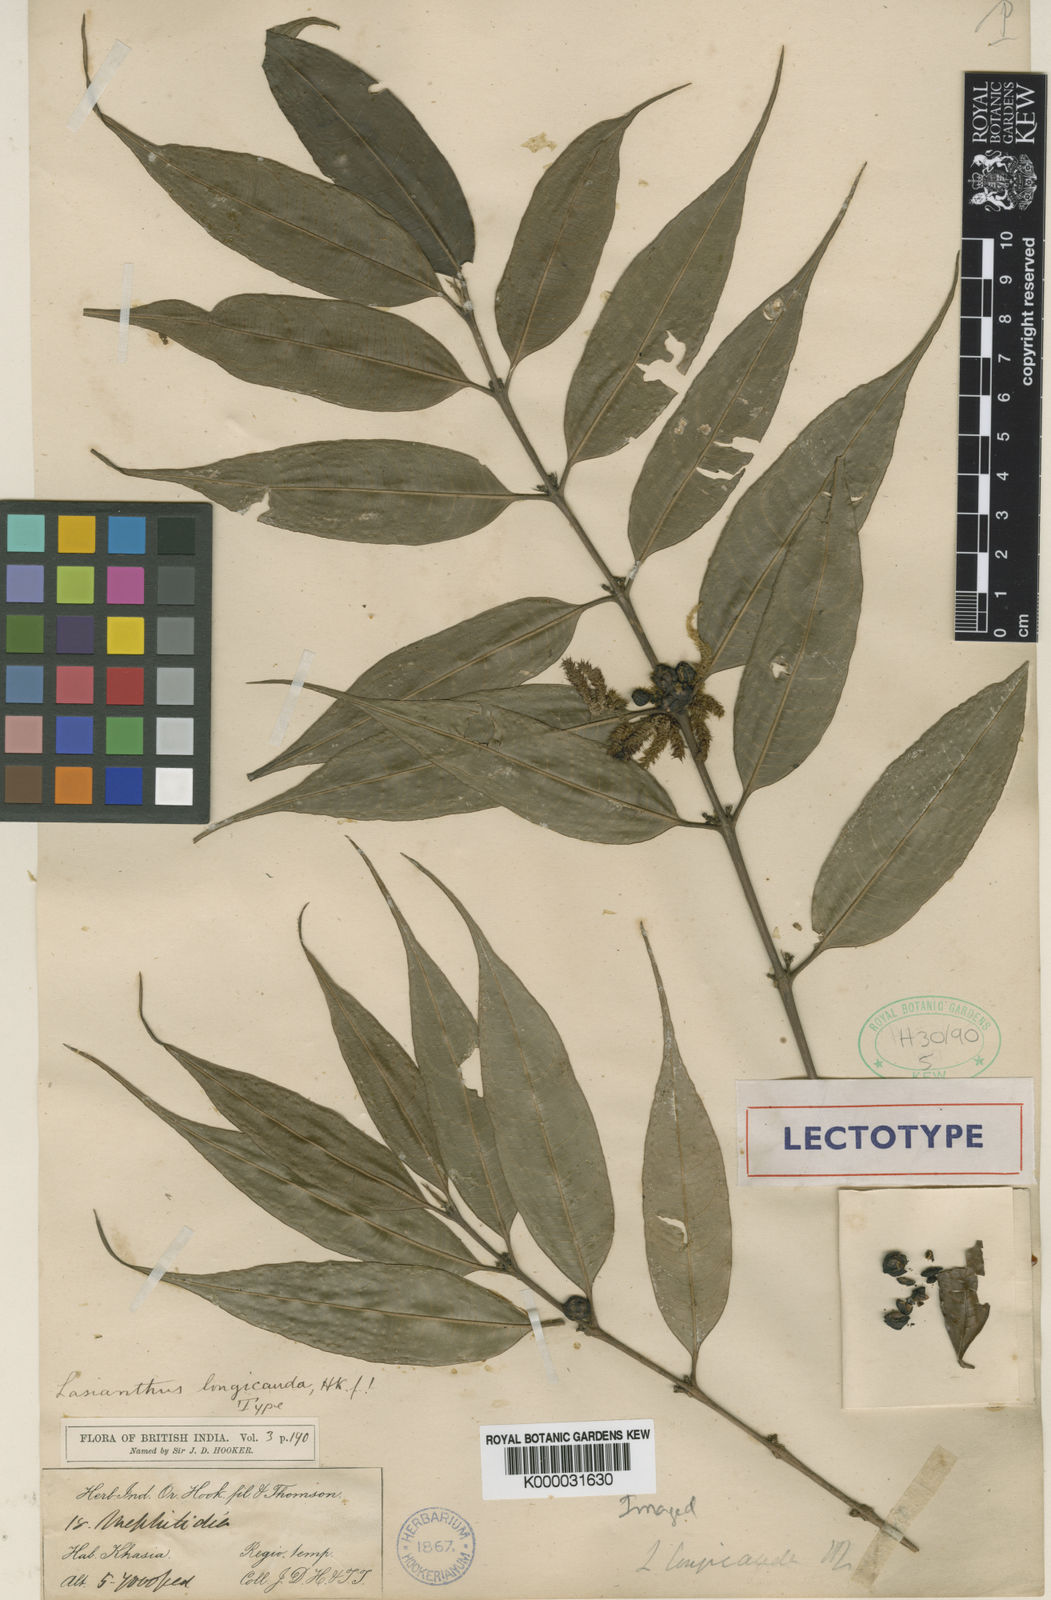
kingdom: Plantae
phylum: Tracheophyta
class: Magnoliopsida
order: Gentianales
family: Rubiaceae
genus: Lasianthus
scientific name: Lasianthus japonicus
